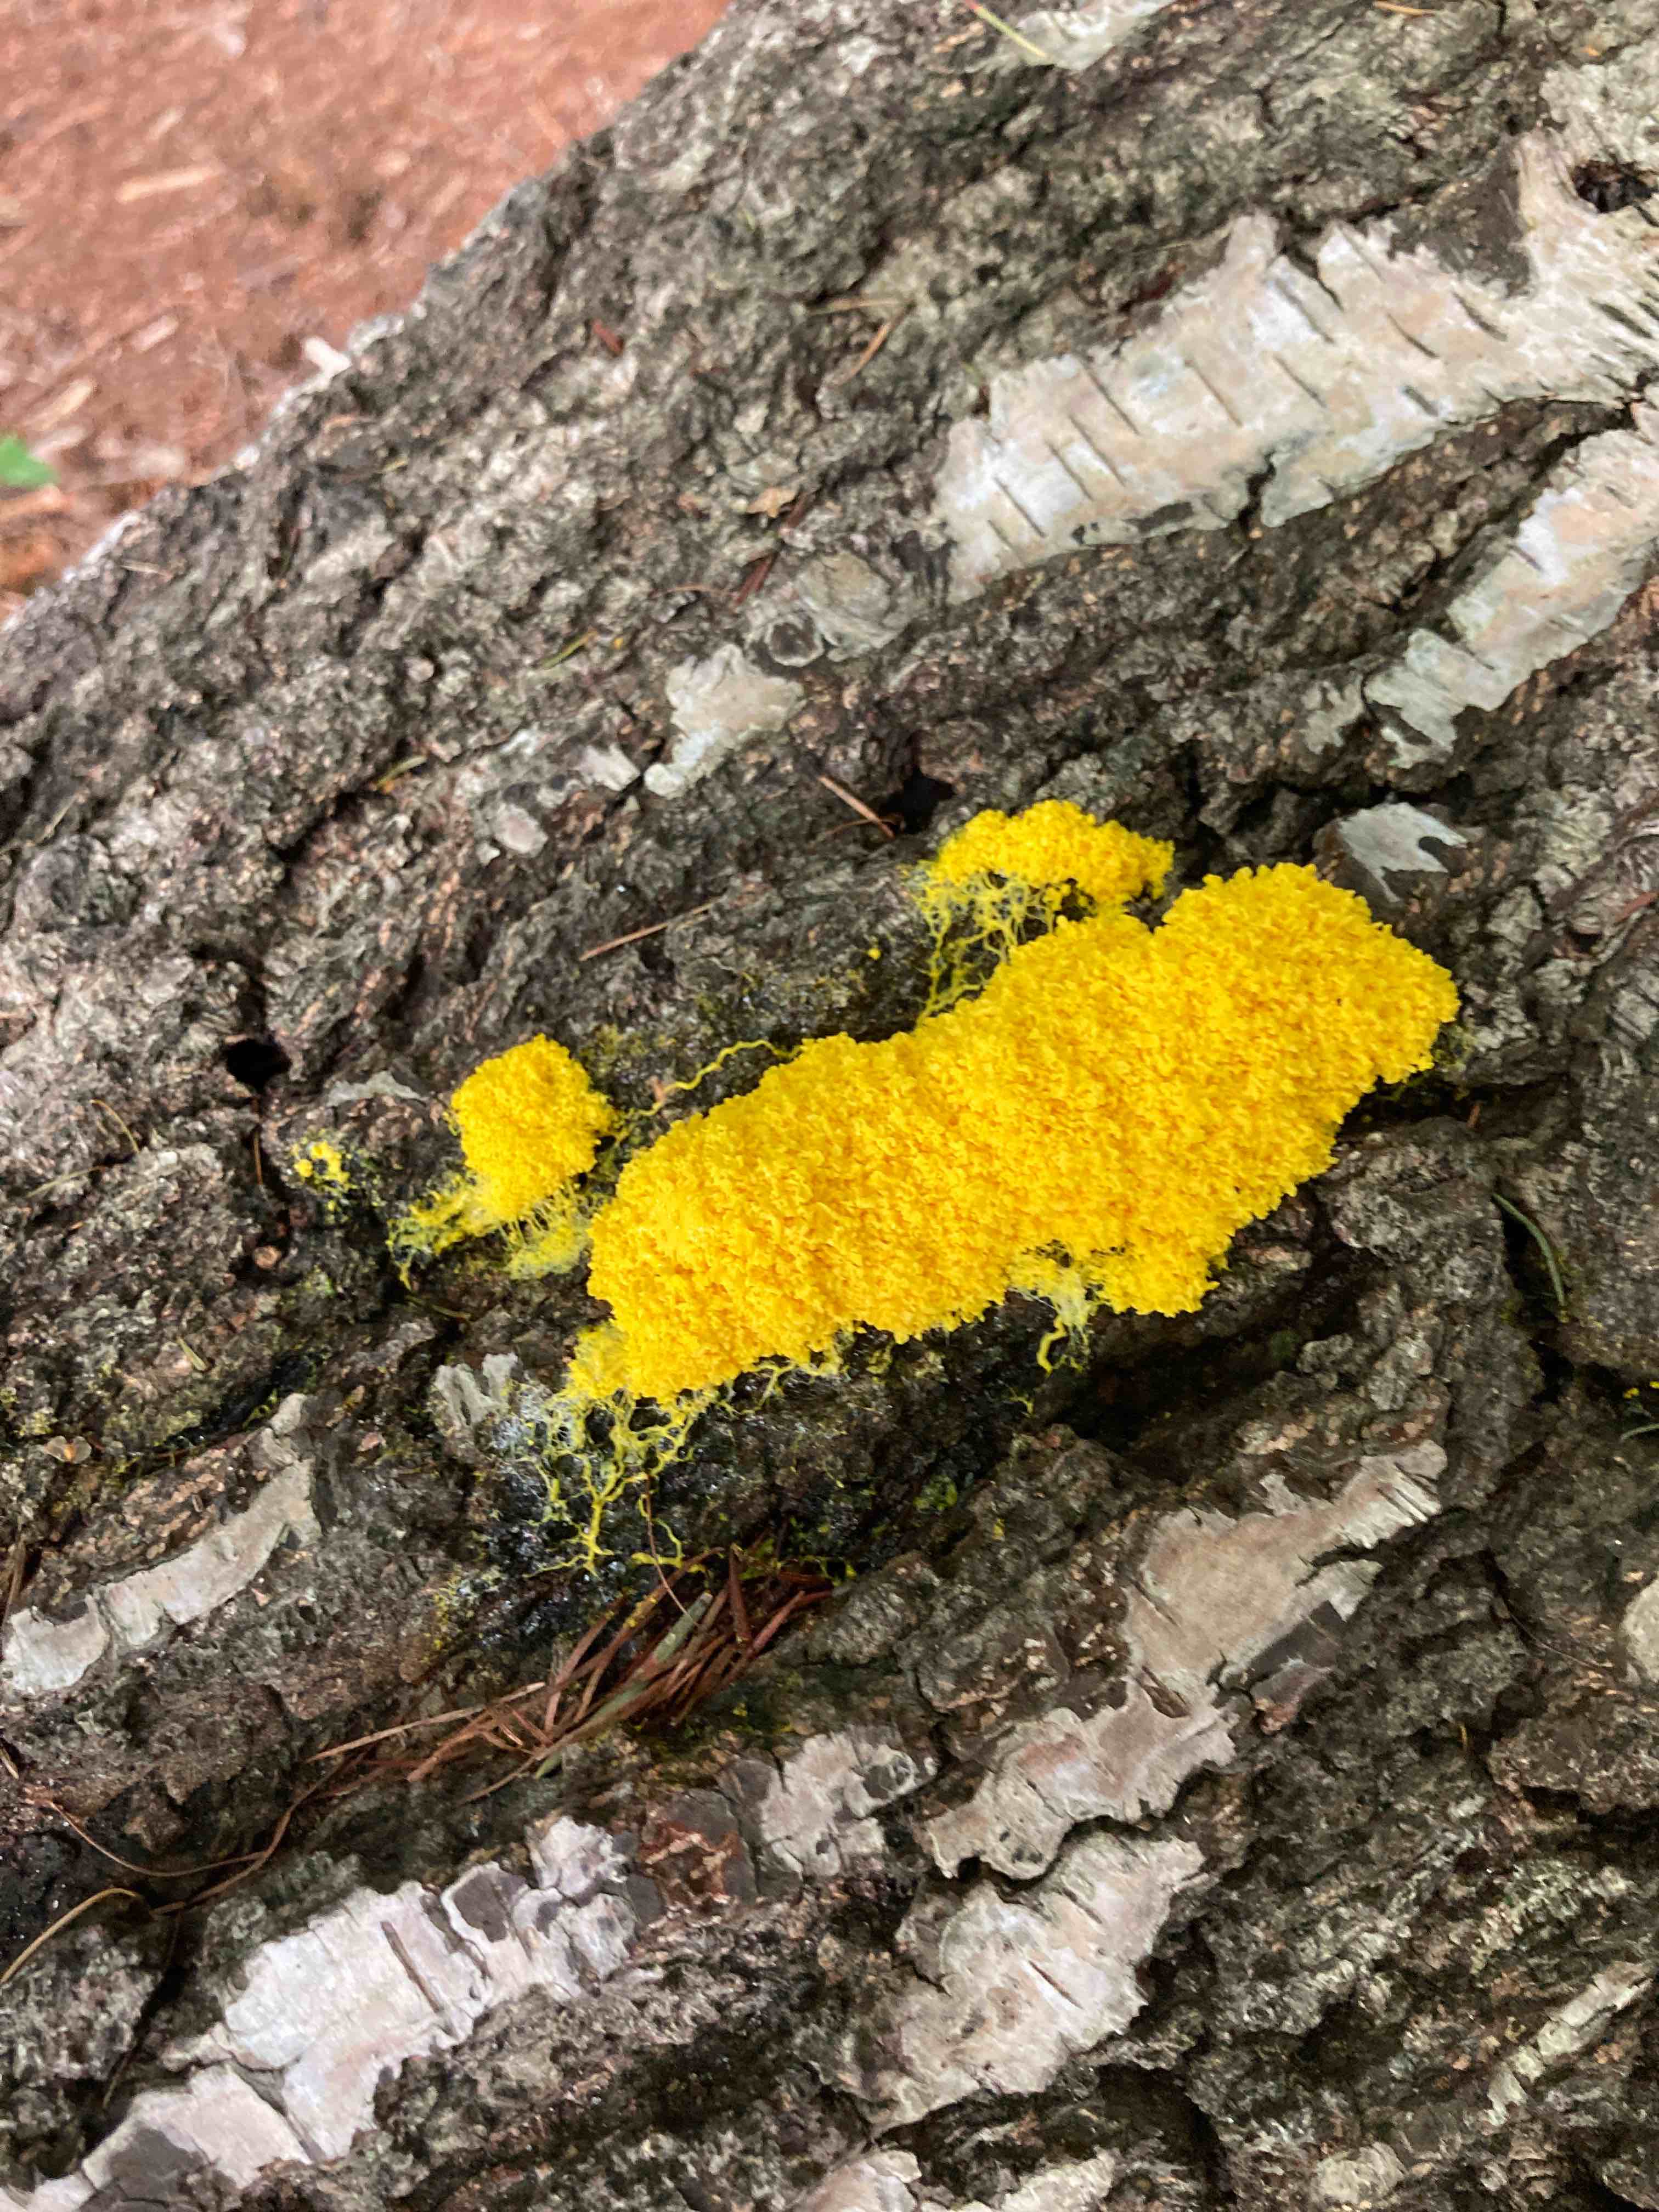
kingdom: Protozoa
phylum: Mycetozoa
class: Myxomycetes
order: Physarales
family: Physaraceae
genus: Fuligo
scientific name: Fuligo septica
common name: gul troldsmør
